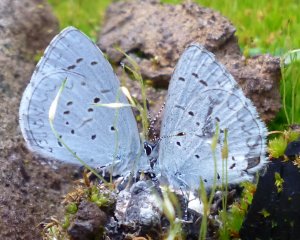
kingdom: Animalia
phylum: Arthropoda
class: Insecta
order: Lepidoptera
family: Lycaenidae
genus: Celastrina
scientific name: Celastrina ladon
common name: Spring Azure
